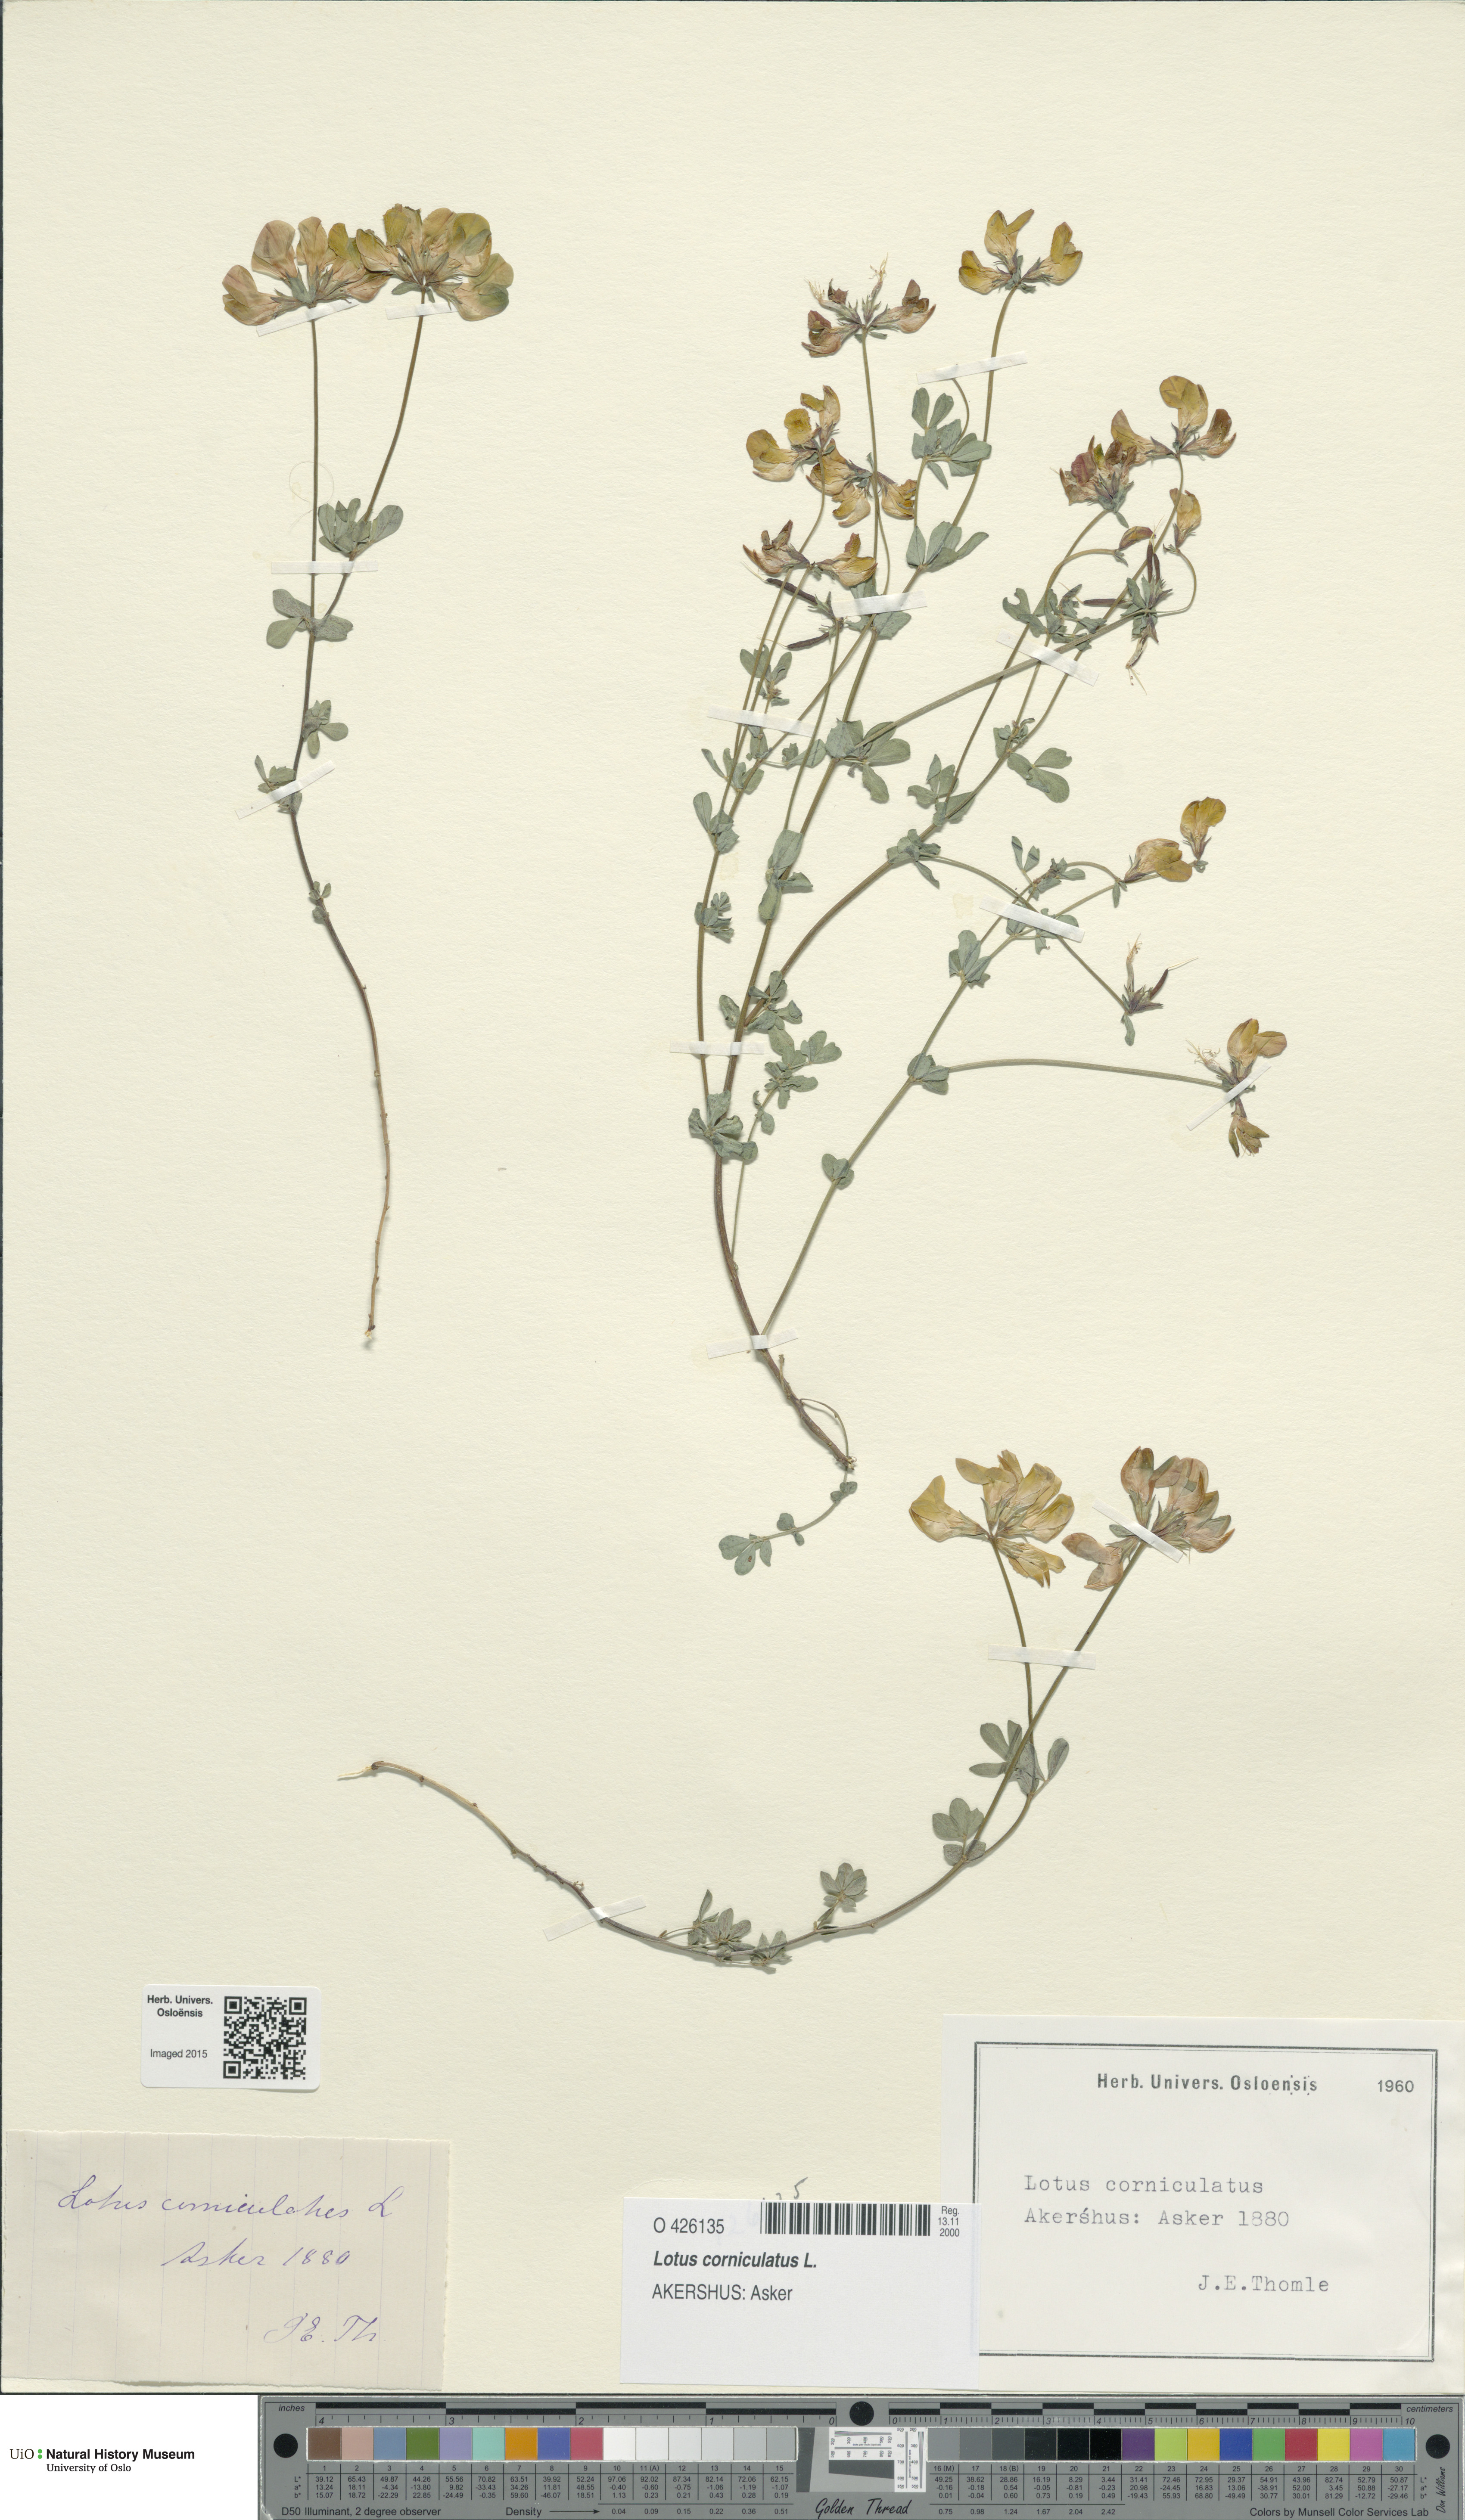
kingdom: Plantae
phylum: Tracheophyta
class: Magnoliopsida
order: Fabales
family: Fabaceae
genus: Lotus
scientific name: Lotus corniculatus
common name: Common bird's-foot-trefoil
